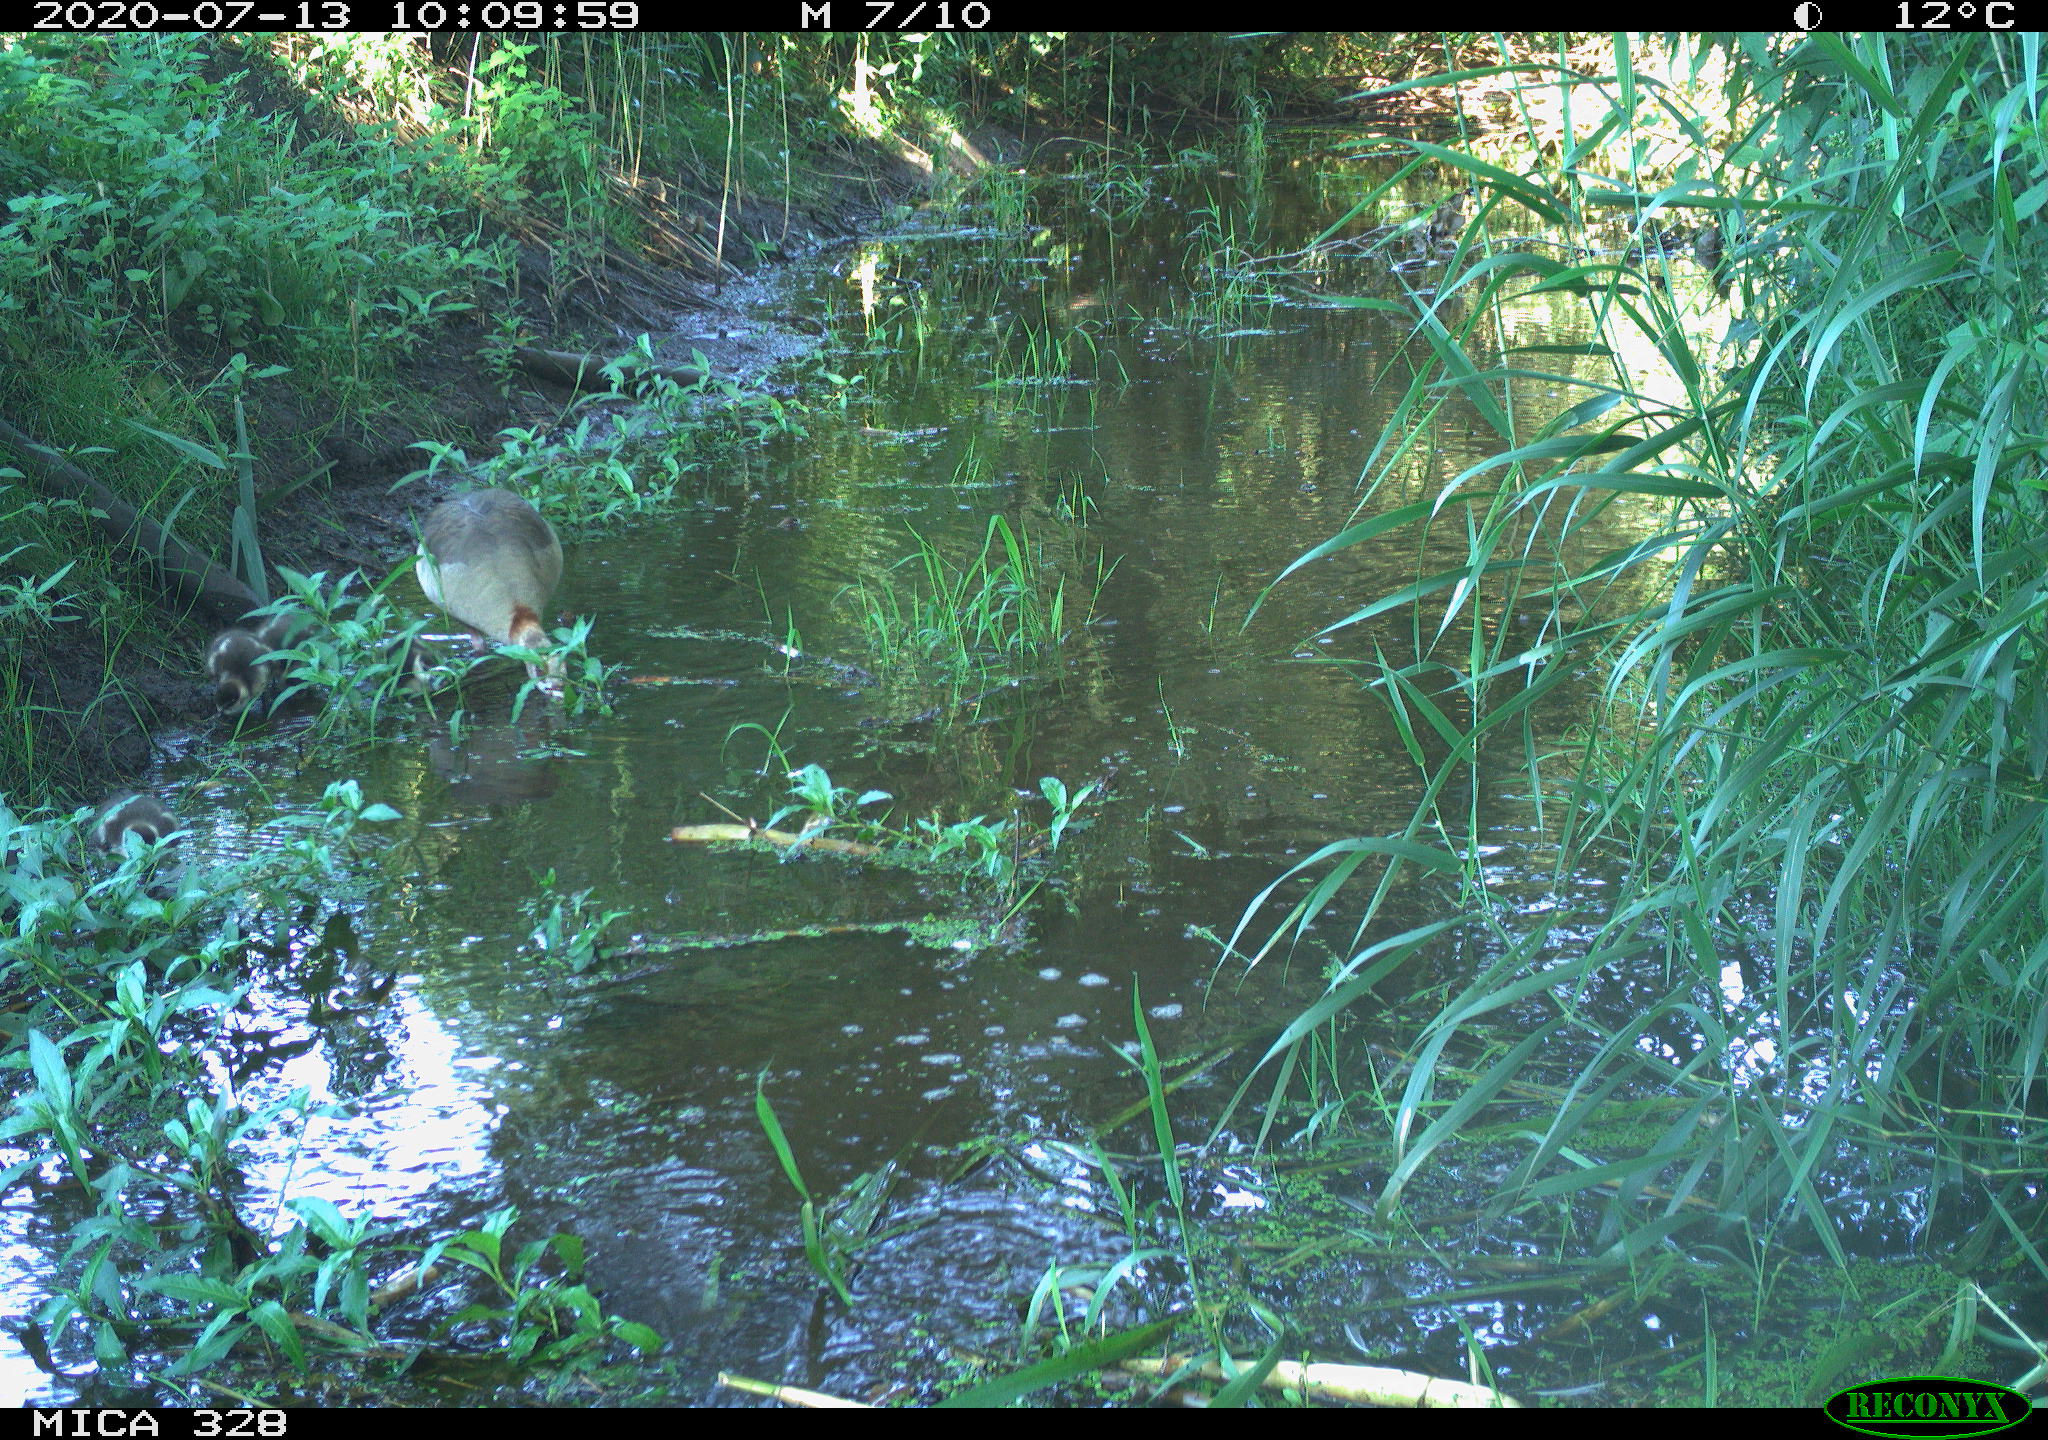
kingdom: Animalia
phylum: Chordata
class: Aves
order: Anseriformes
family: Anatidae
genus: Alopochen
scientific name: Alopochen aegyptiaca
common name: Egyptian goose
